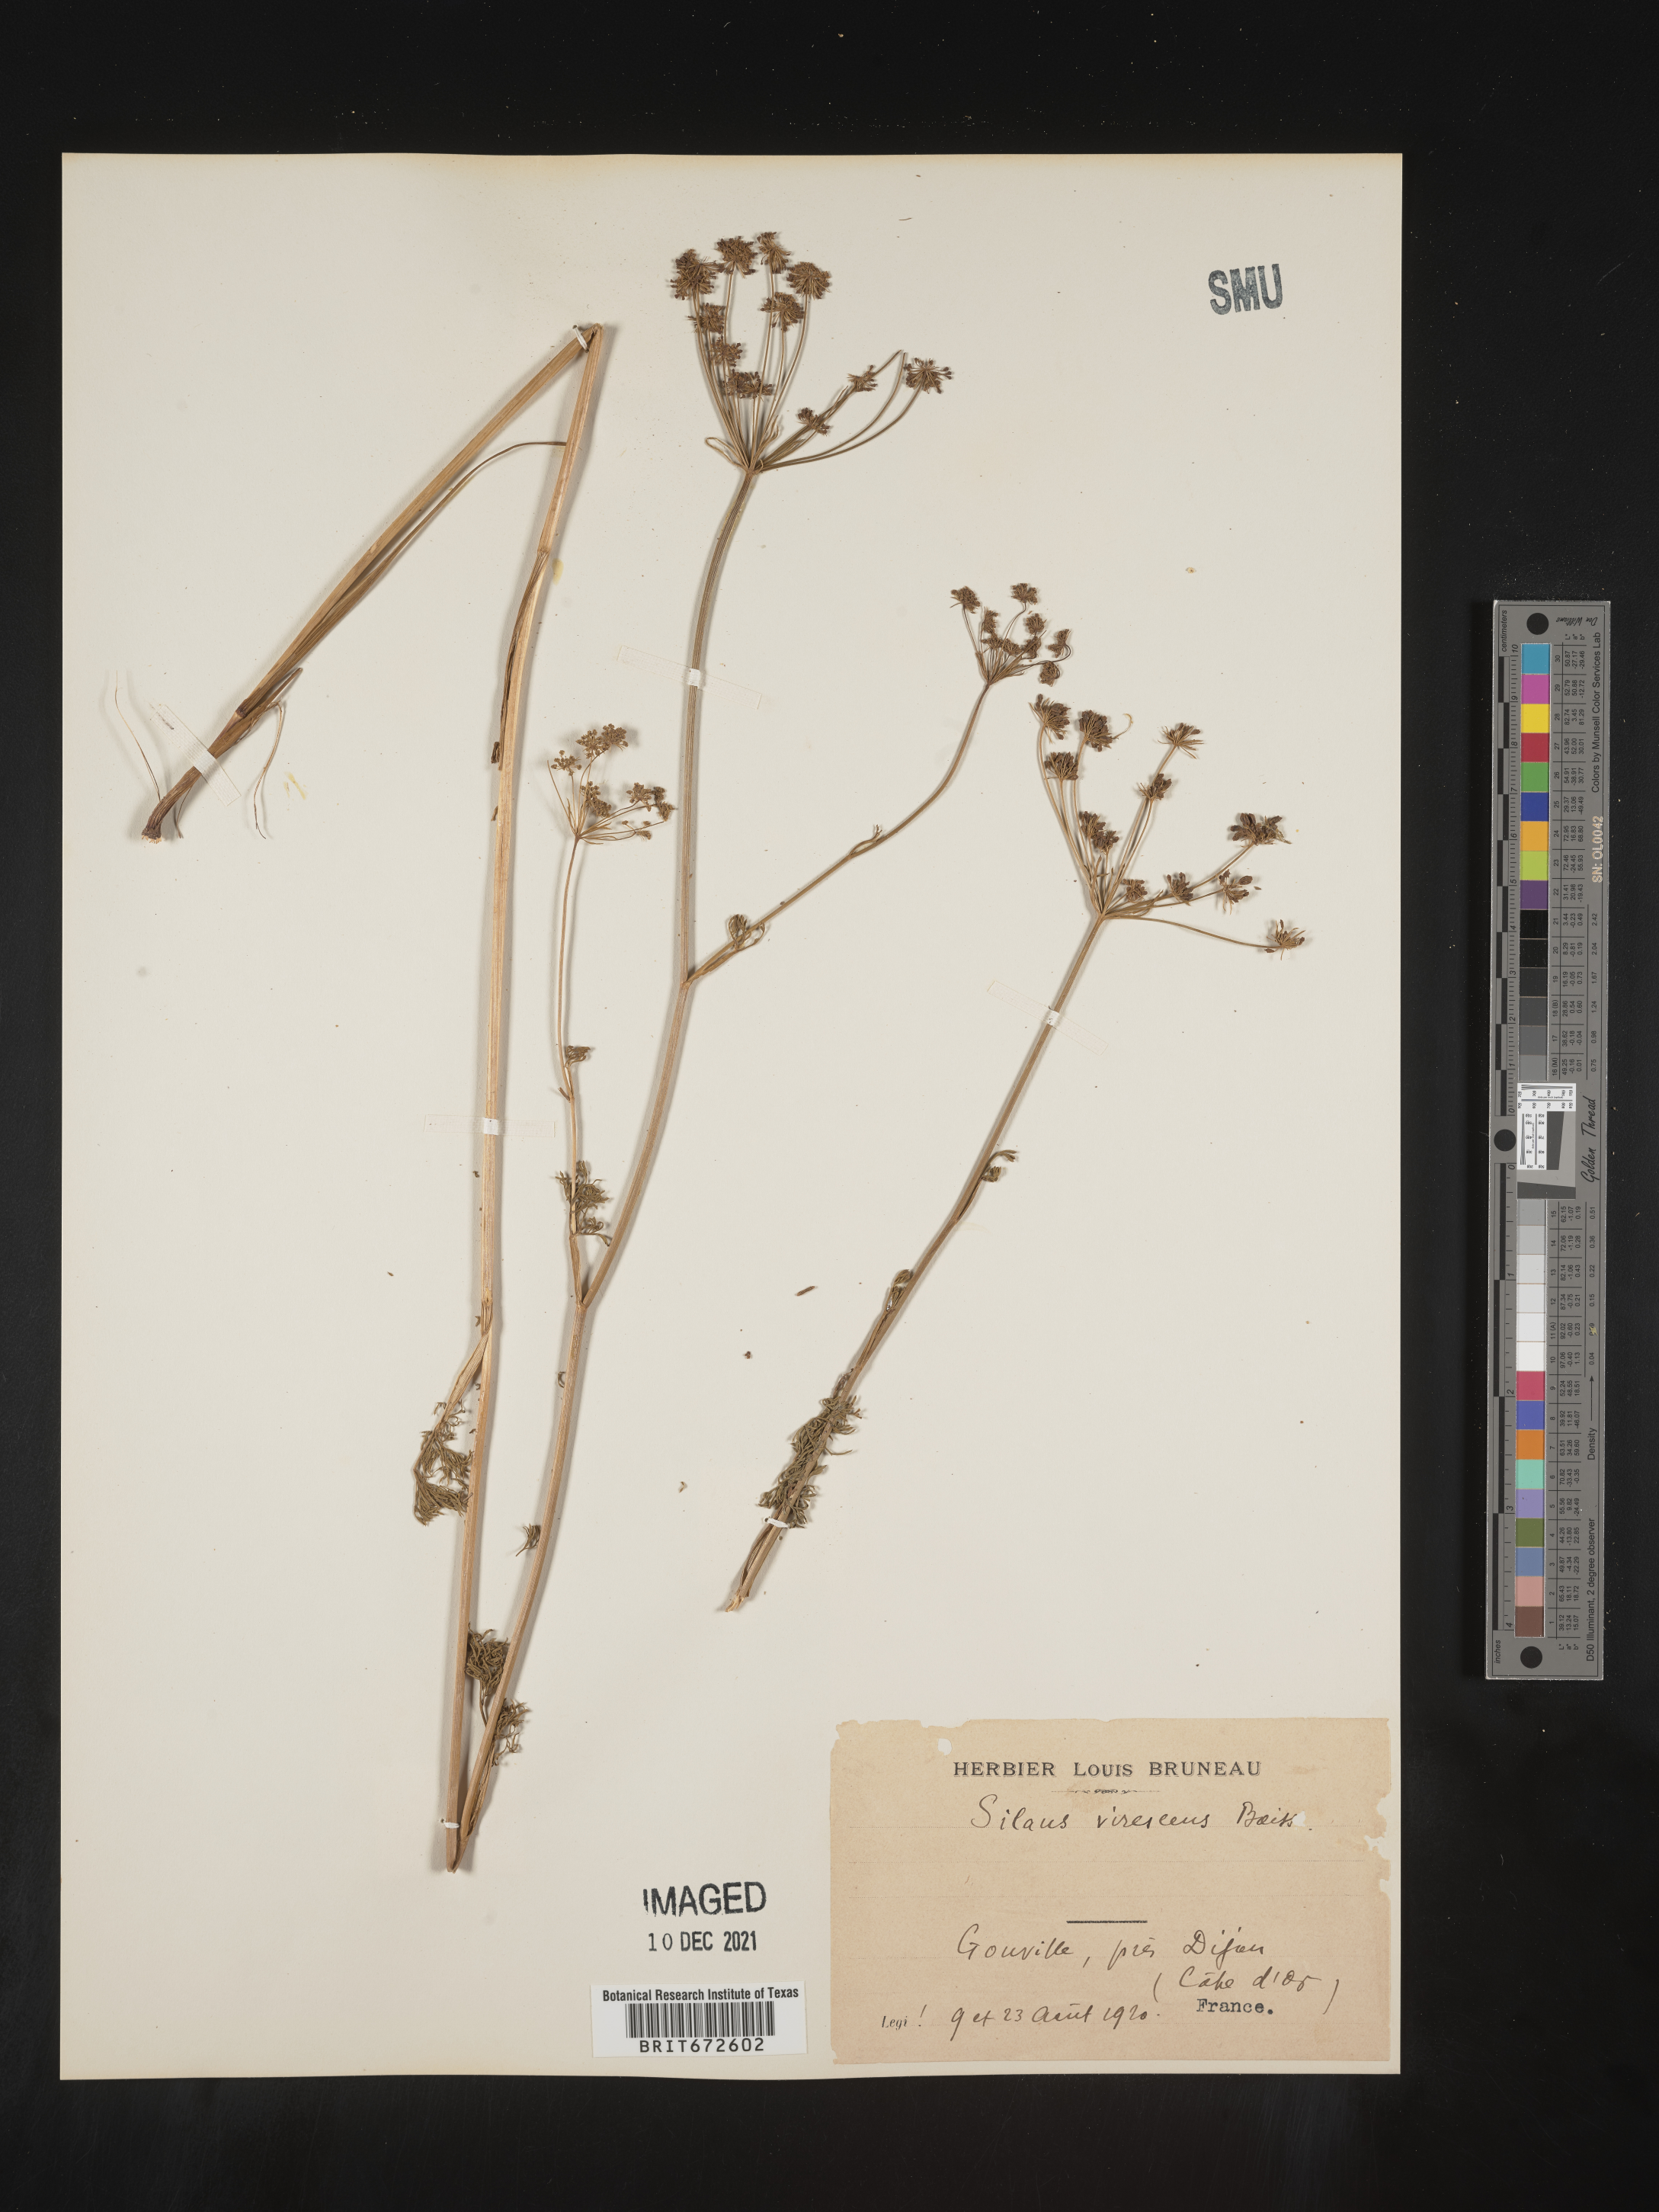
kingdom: Plantae
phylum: Tracheophyta
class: Magnoliopsida
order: Apiales
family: Apiaceae
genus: Silaum
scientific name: Silaum
